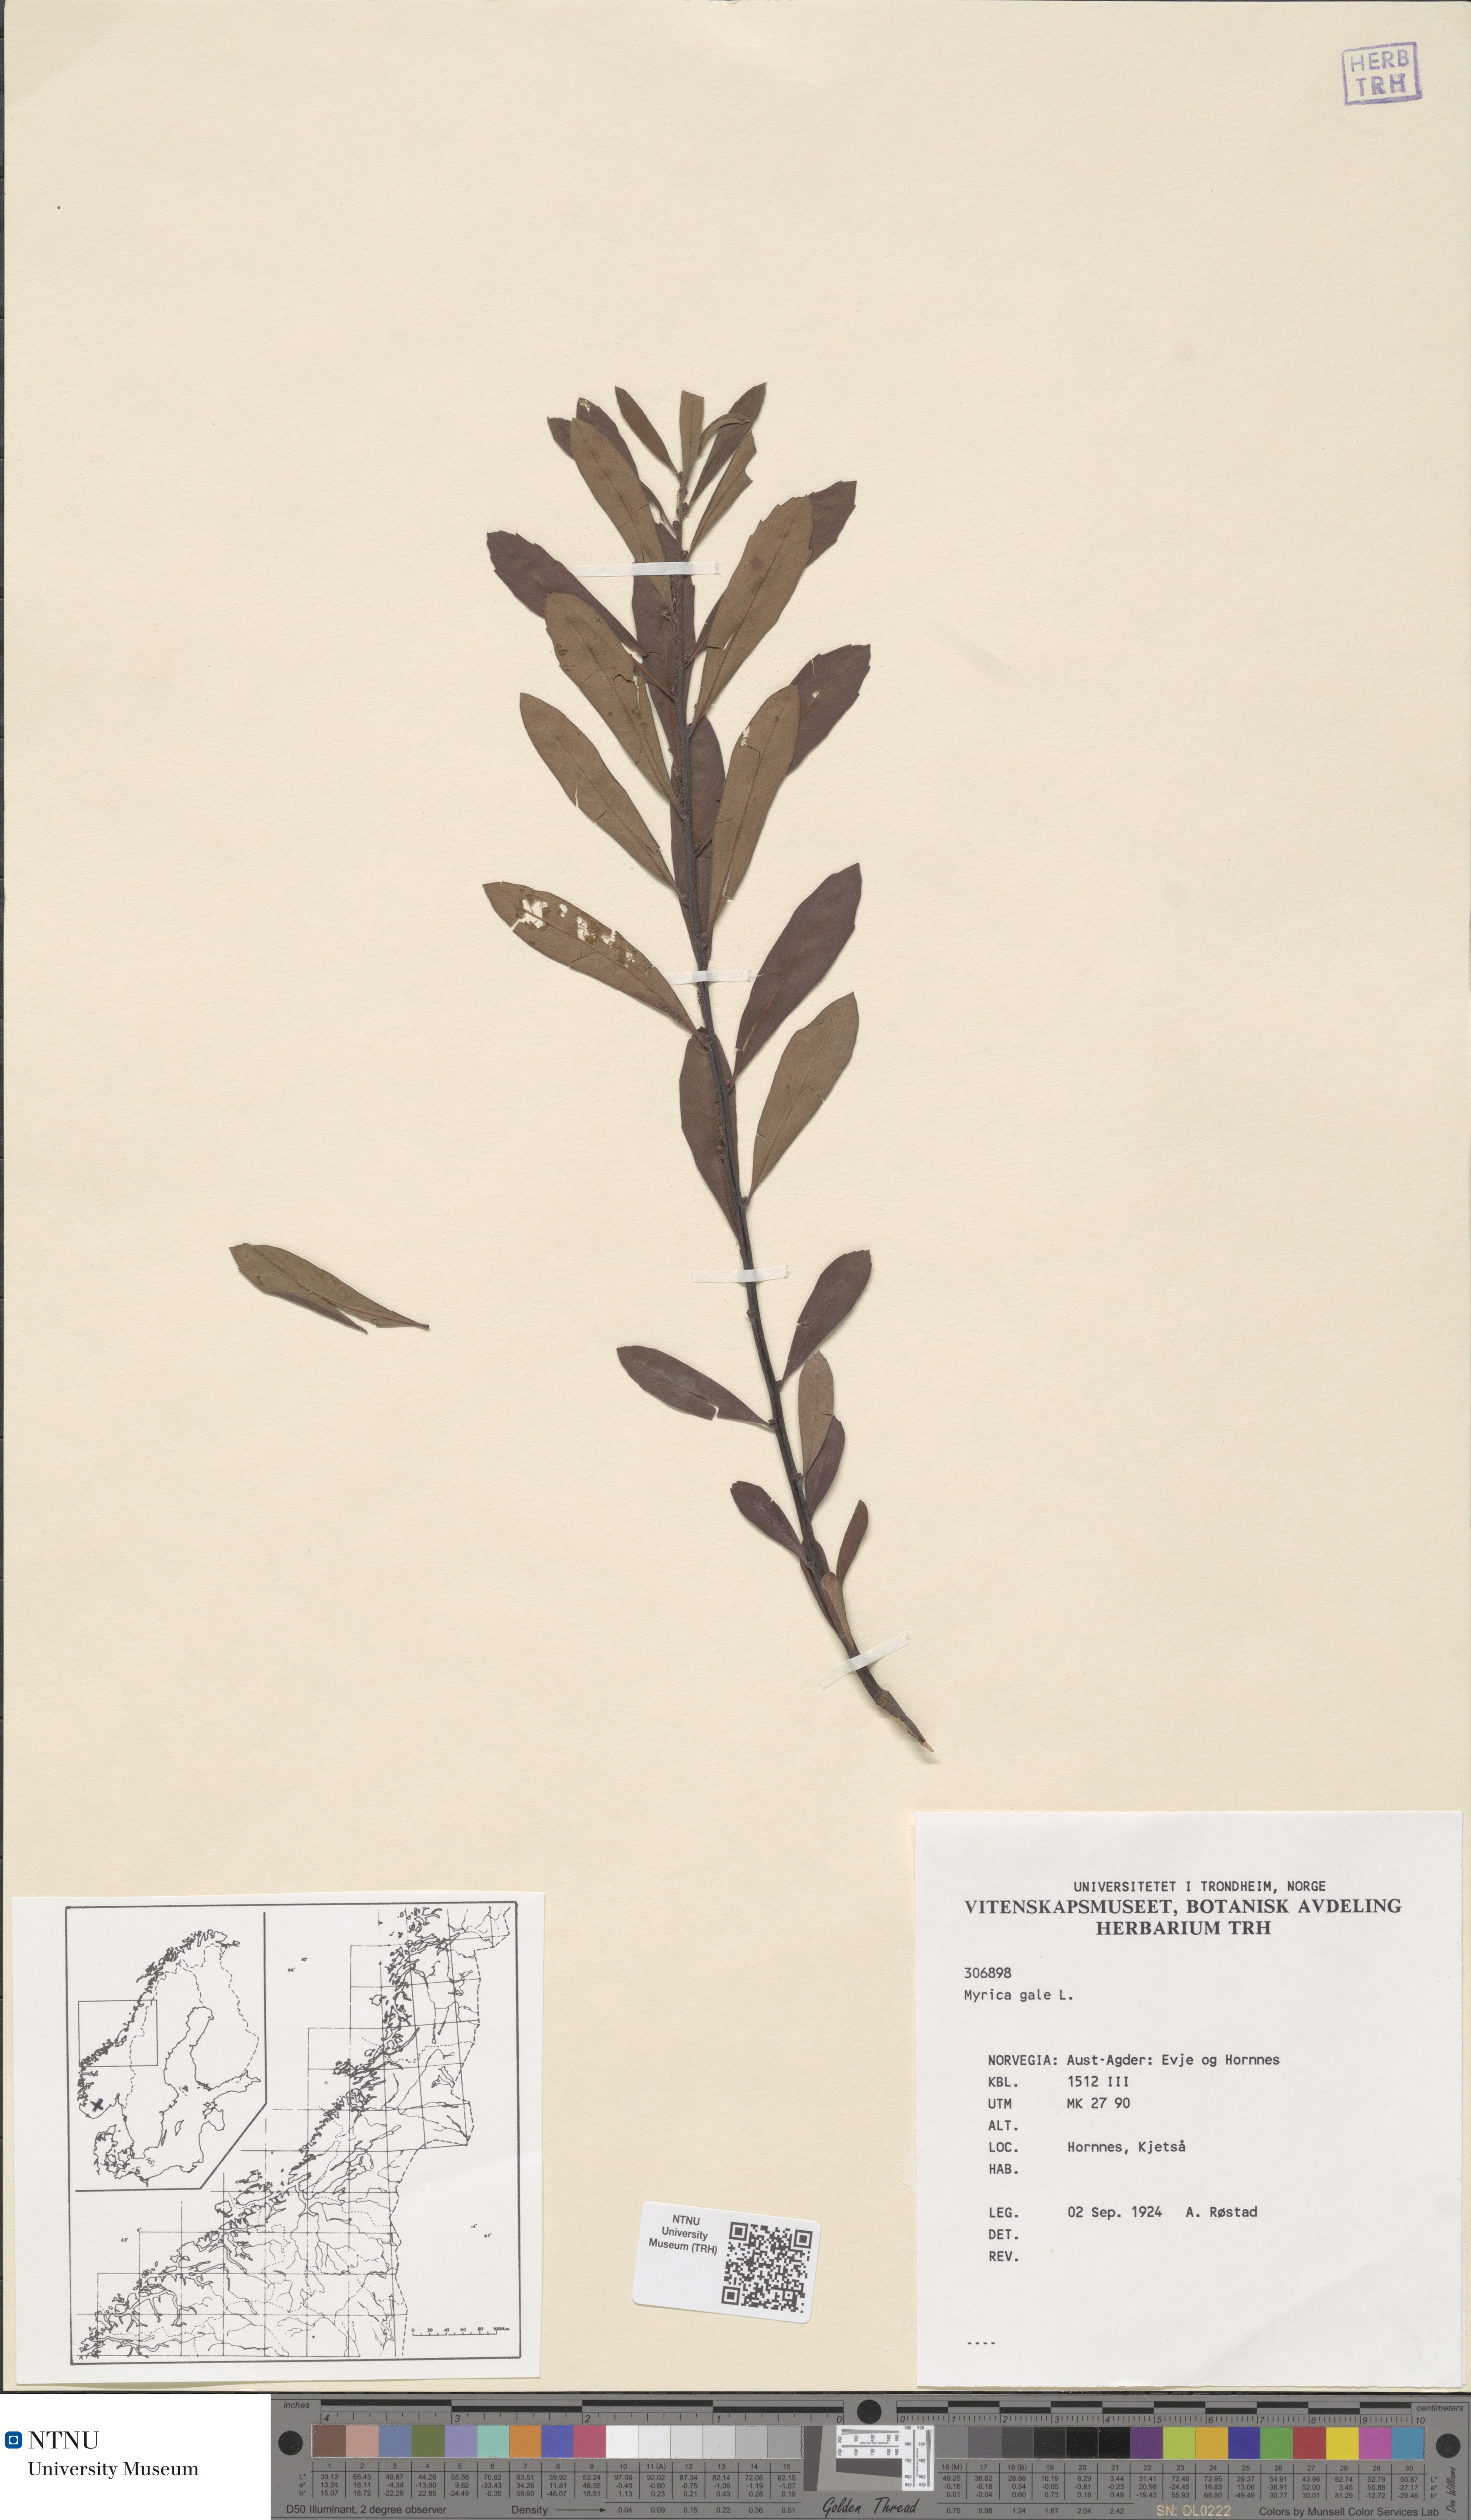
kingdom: Plantae
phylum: Tracheophyta
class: Magnoliopsida
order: Fagales
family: Myricaceae
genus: Myrica
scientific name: Myrica gale
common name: Sweet gale
